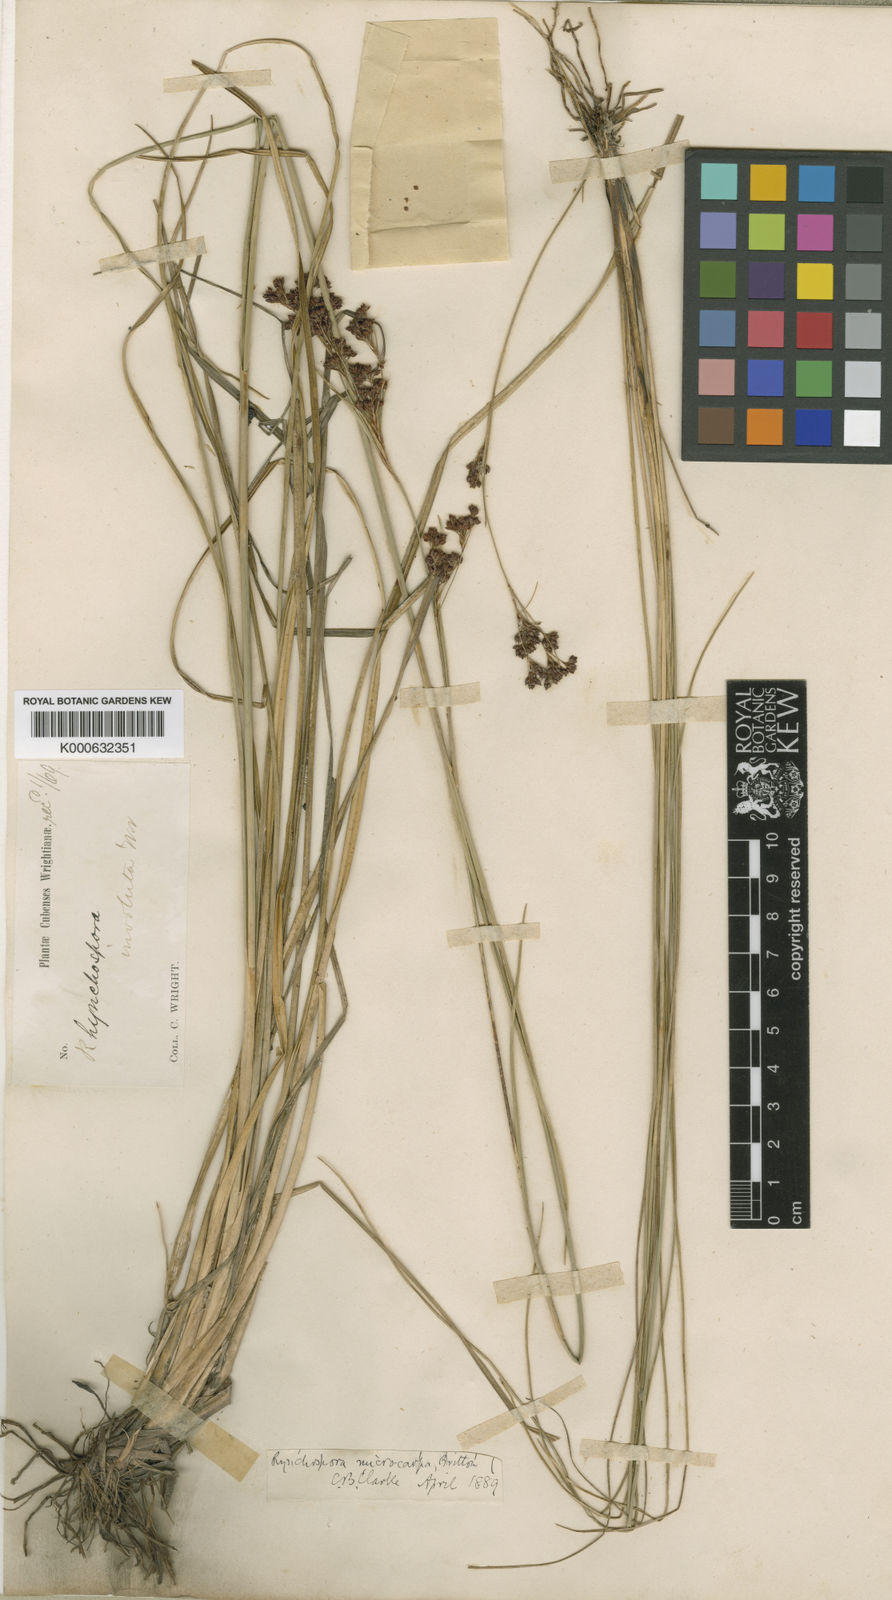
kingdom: Plantae
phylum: Tracheophyta
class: Liliopsida
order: Poales
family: Cyperaceae
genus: Rhynchospora
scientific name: Rhynchospora
